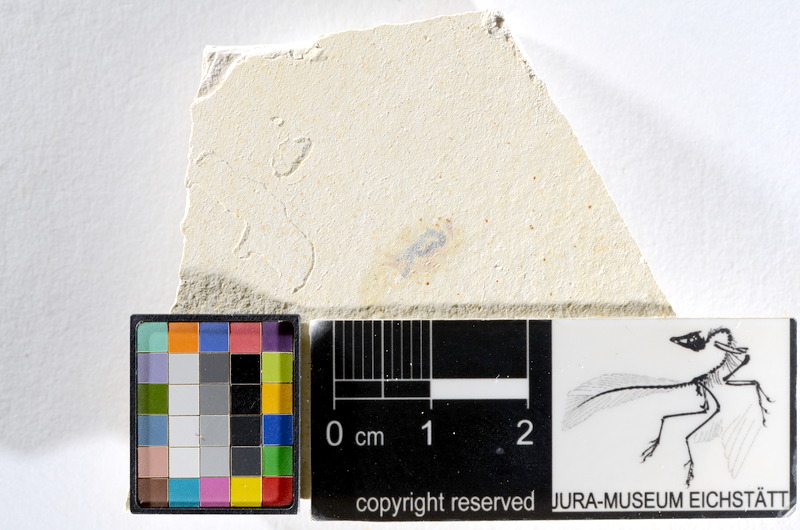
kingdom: Animalia
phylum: Chordata
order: Salmoniformes
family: Orthogonikleithridae
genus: Orthogonikleithrus
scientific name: Orthogonikleithrus hoelli
